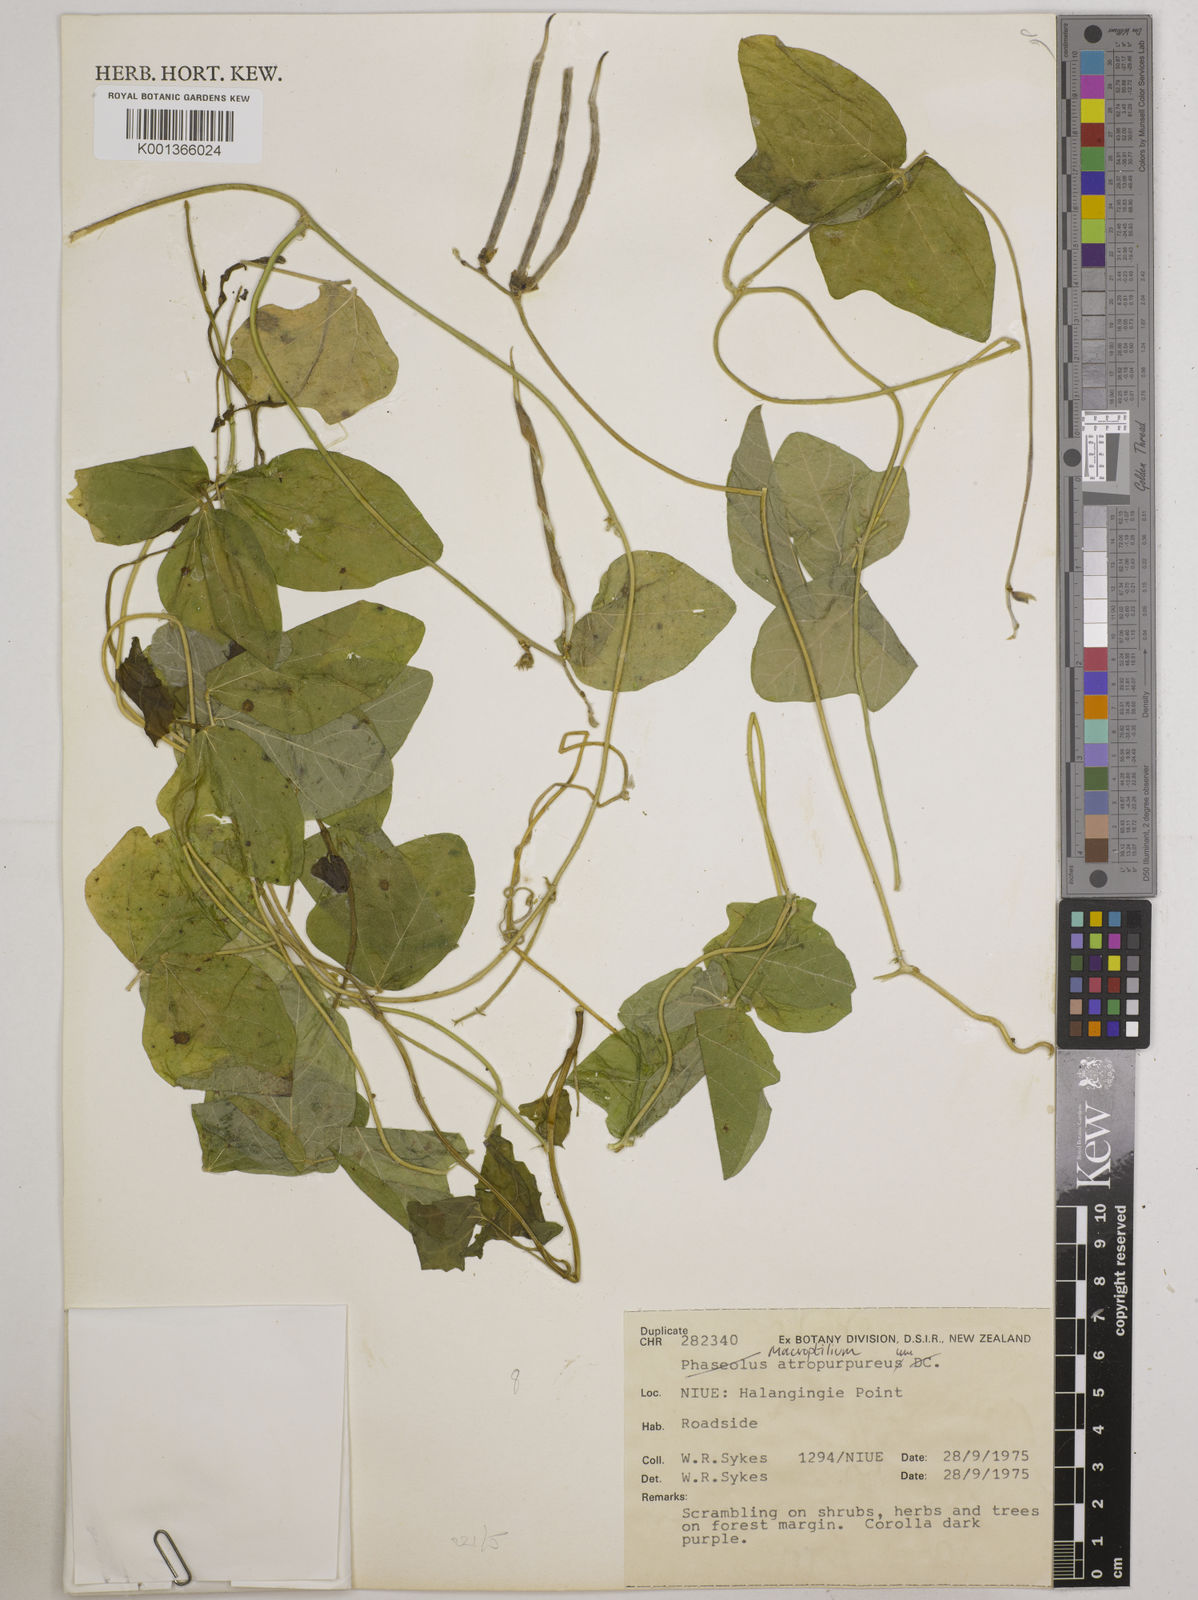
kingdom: Plantae
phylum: Tracheophyta
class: Magnoliopsida
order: Fabales
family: Fabaceae
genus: Macroptilium
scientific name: Macroptilium atropurpureum
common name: Purple bushbean
